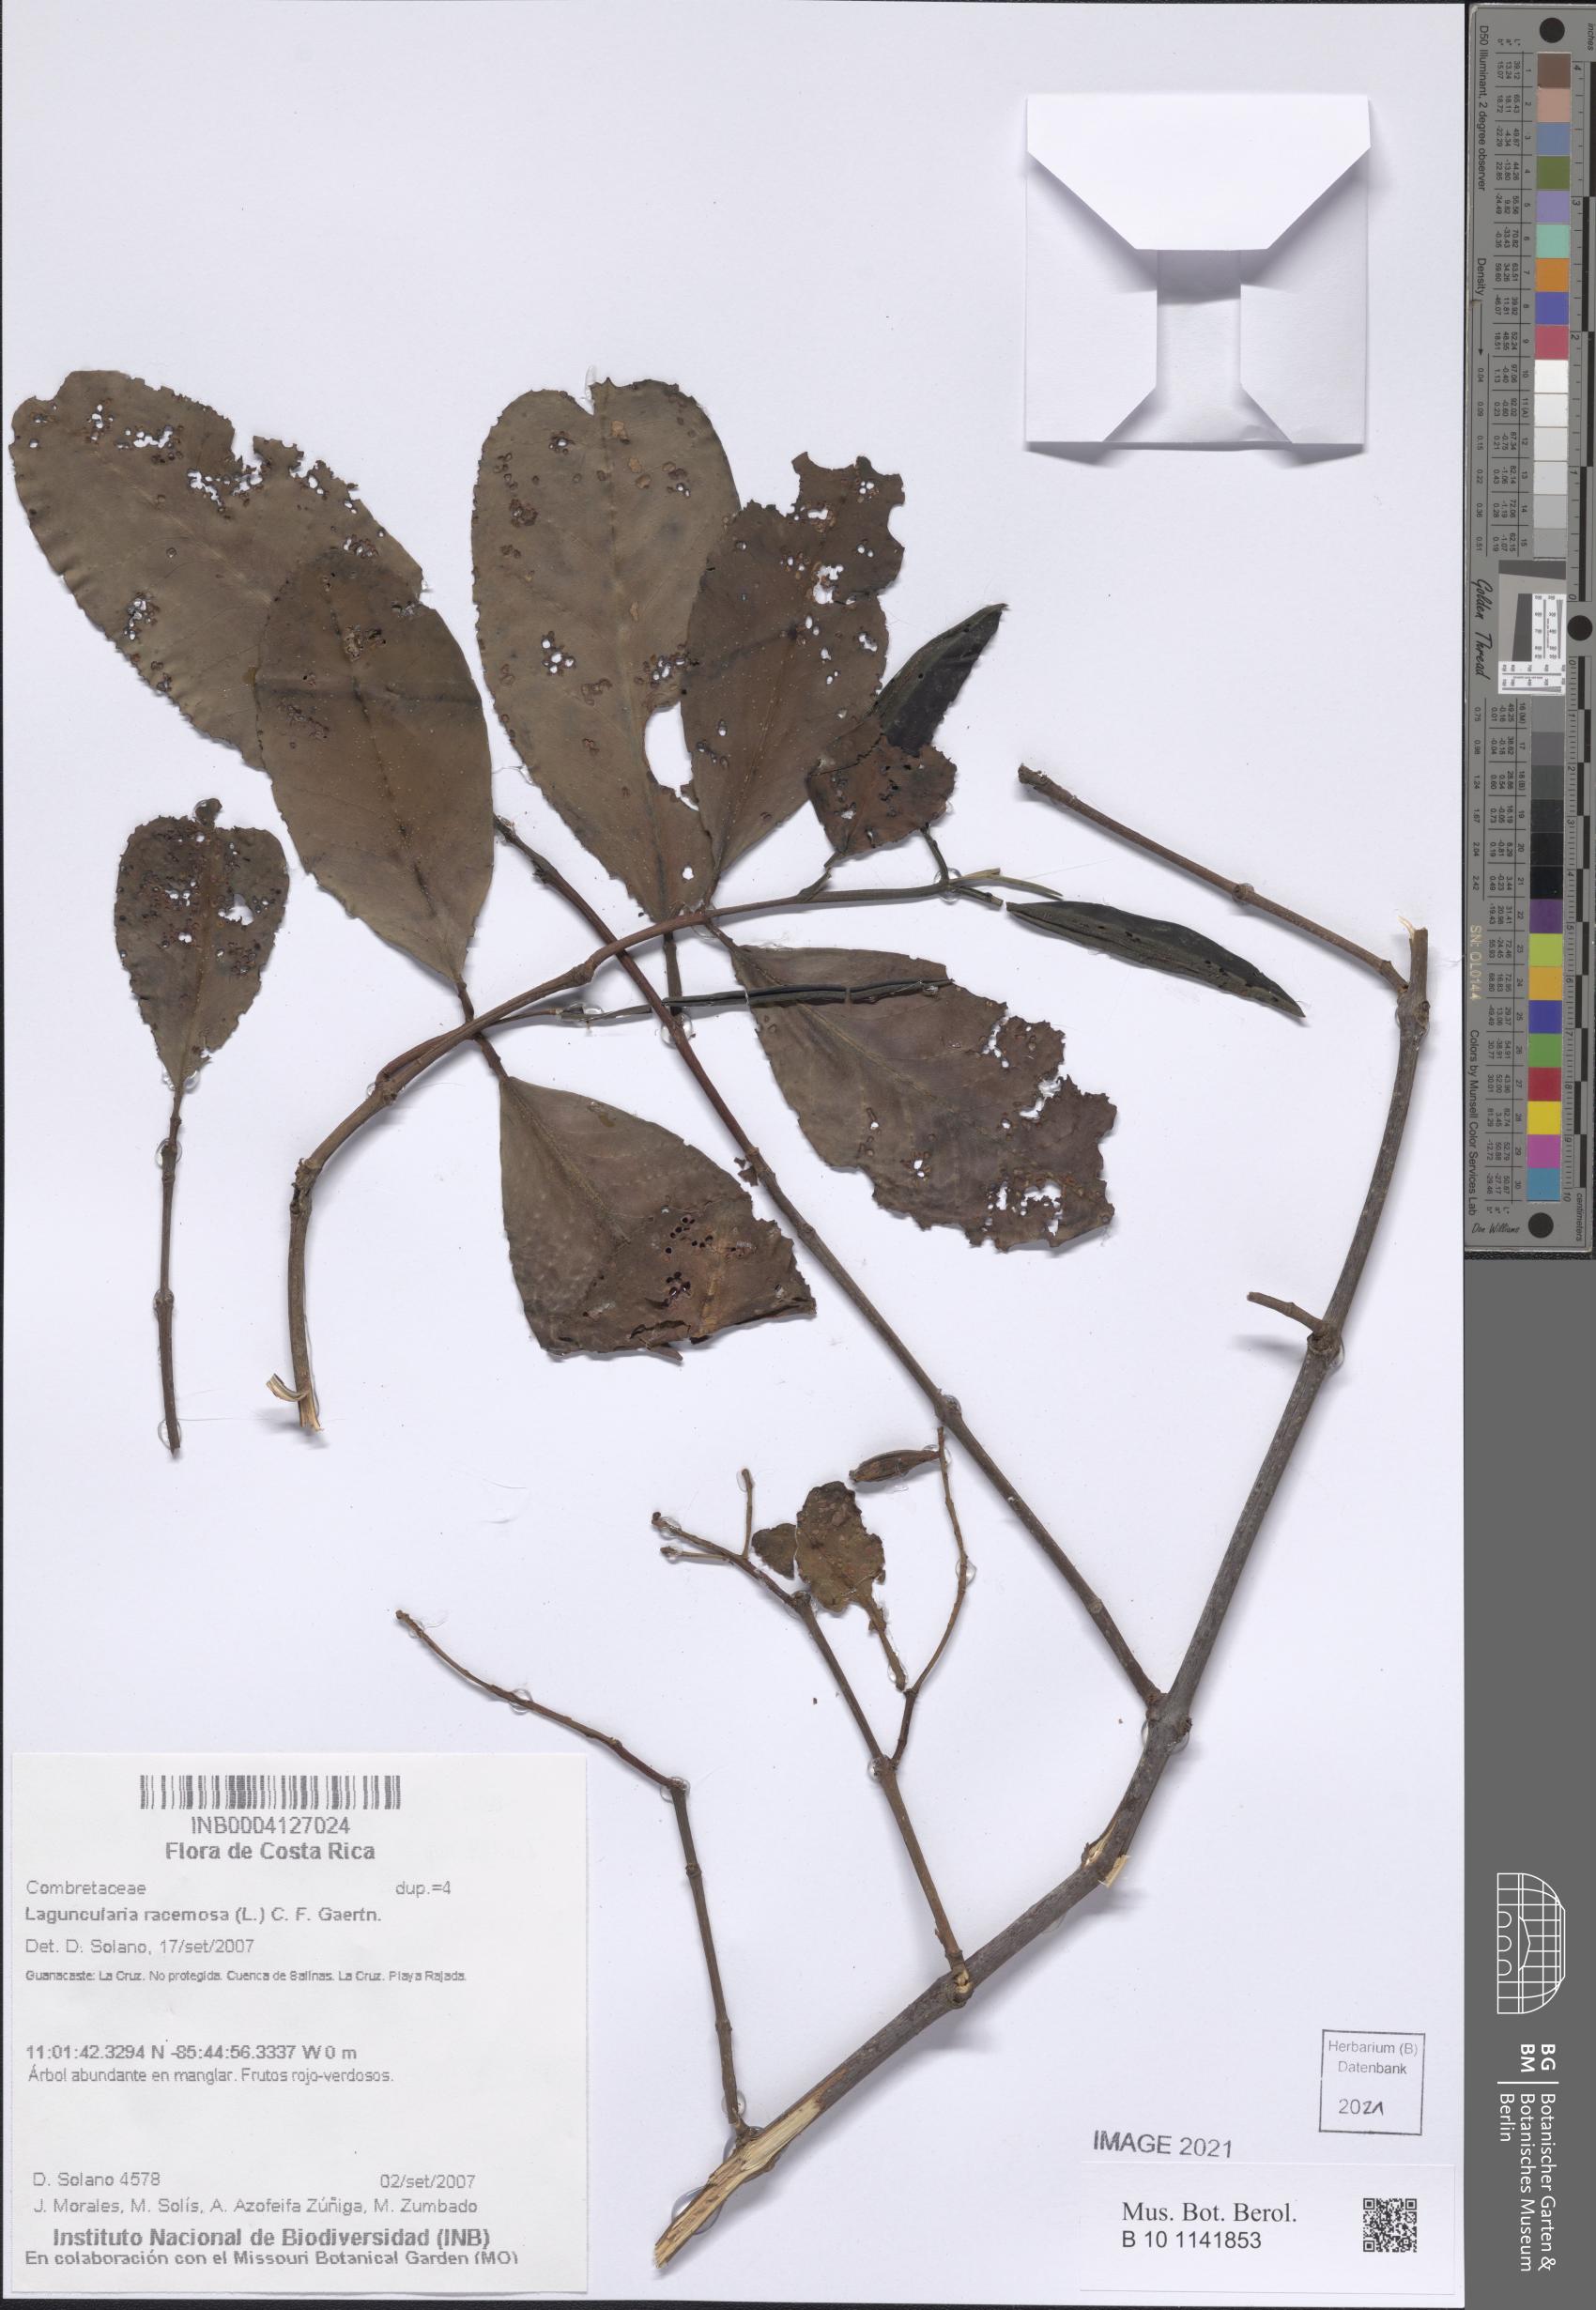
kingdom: Plantae
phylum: Tracheophyta
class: Magnoliopsida
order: Myrtales
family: Combretaceae
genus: Laguncularia
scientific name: Laguncularia racemosa
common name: White mangrove
